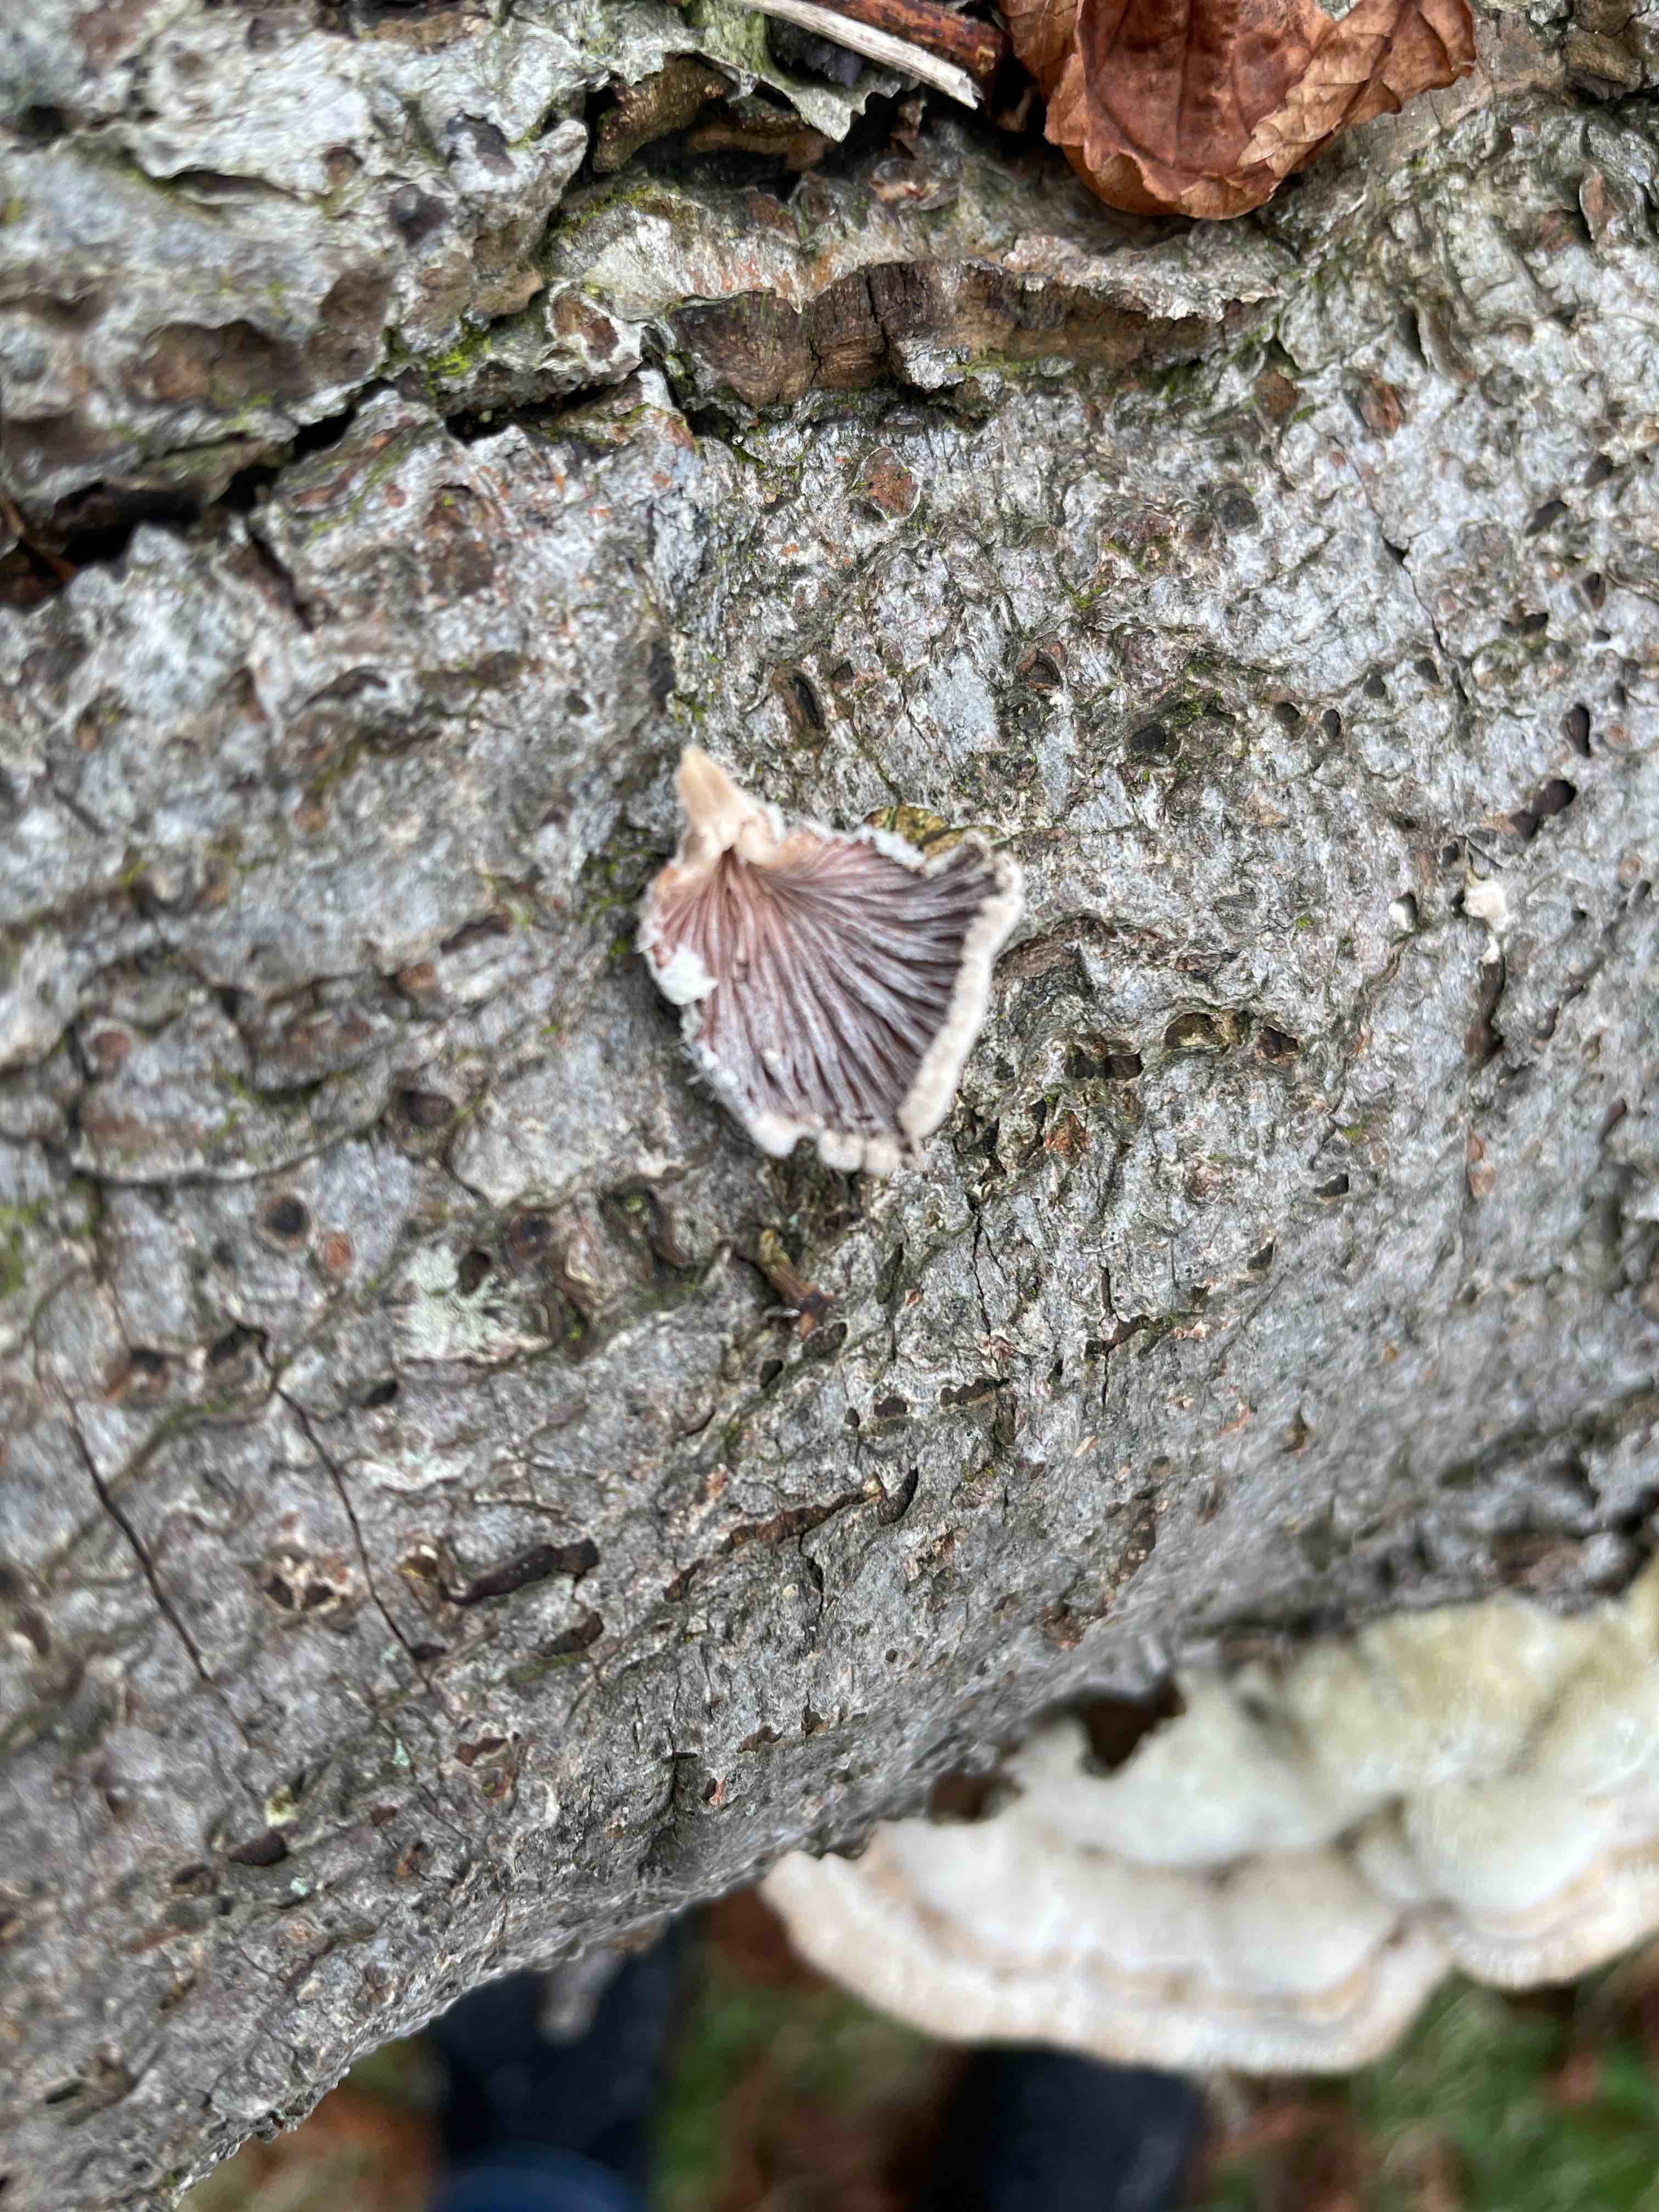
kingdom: Fungi
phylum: Basidiomycota
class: Agaricomycetes
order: Agaricales
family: Schizophyllaceae
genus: Schizophyllum
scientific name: Schizophyllum commune
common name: kløvblad
